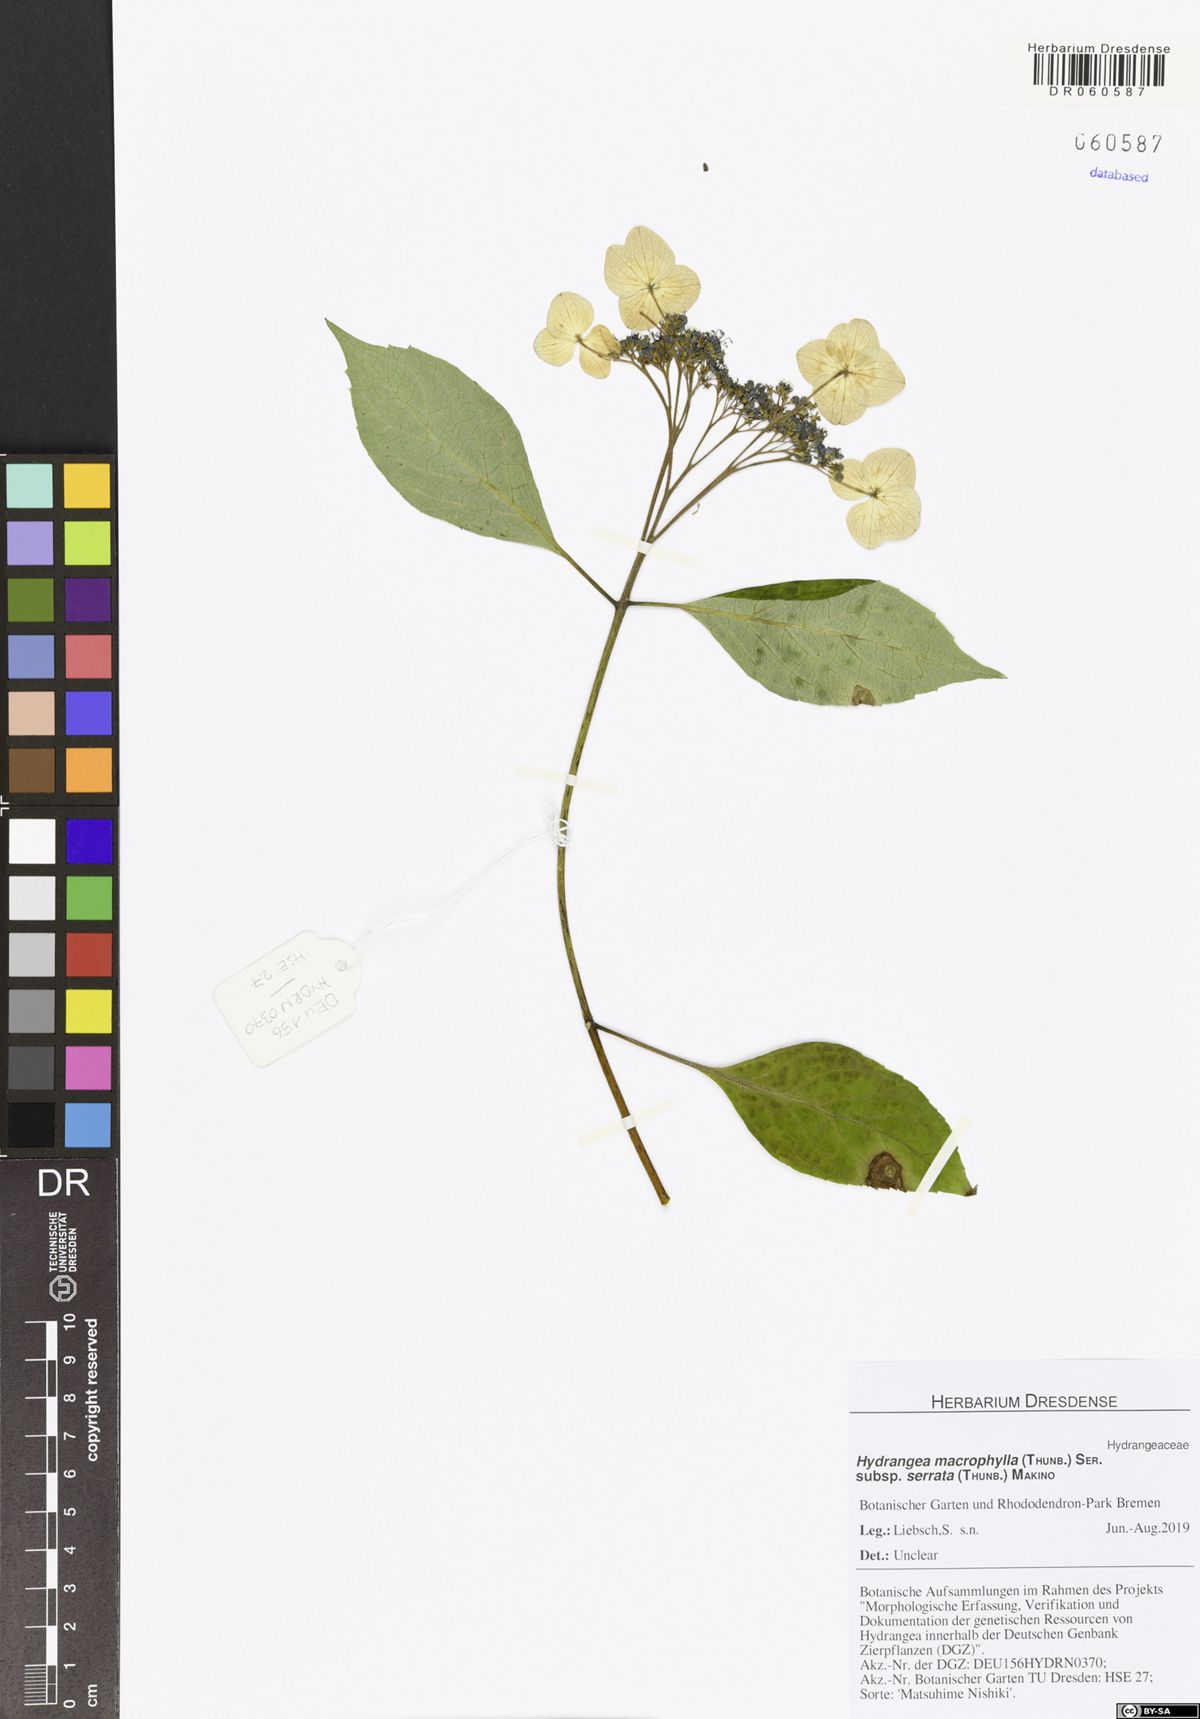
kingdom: Plantae
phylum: Tracheophyta
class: Magnoliopsida
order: Cornales
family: Hydrangeaceae
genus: Hydrangea
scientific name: Hydrangea serrata
